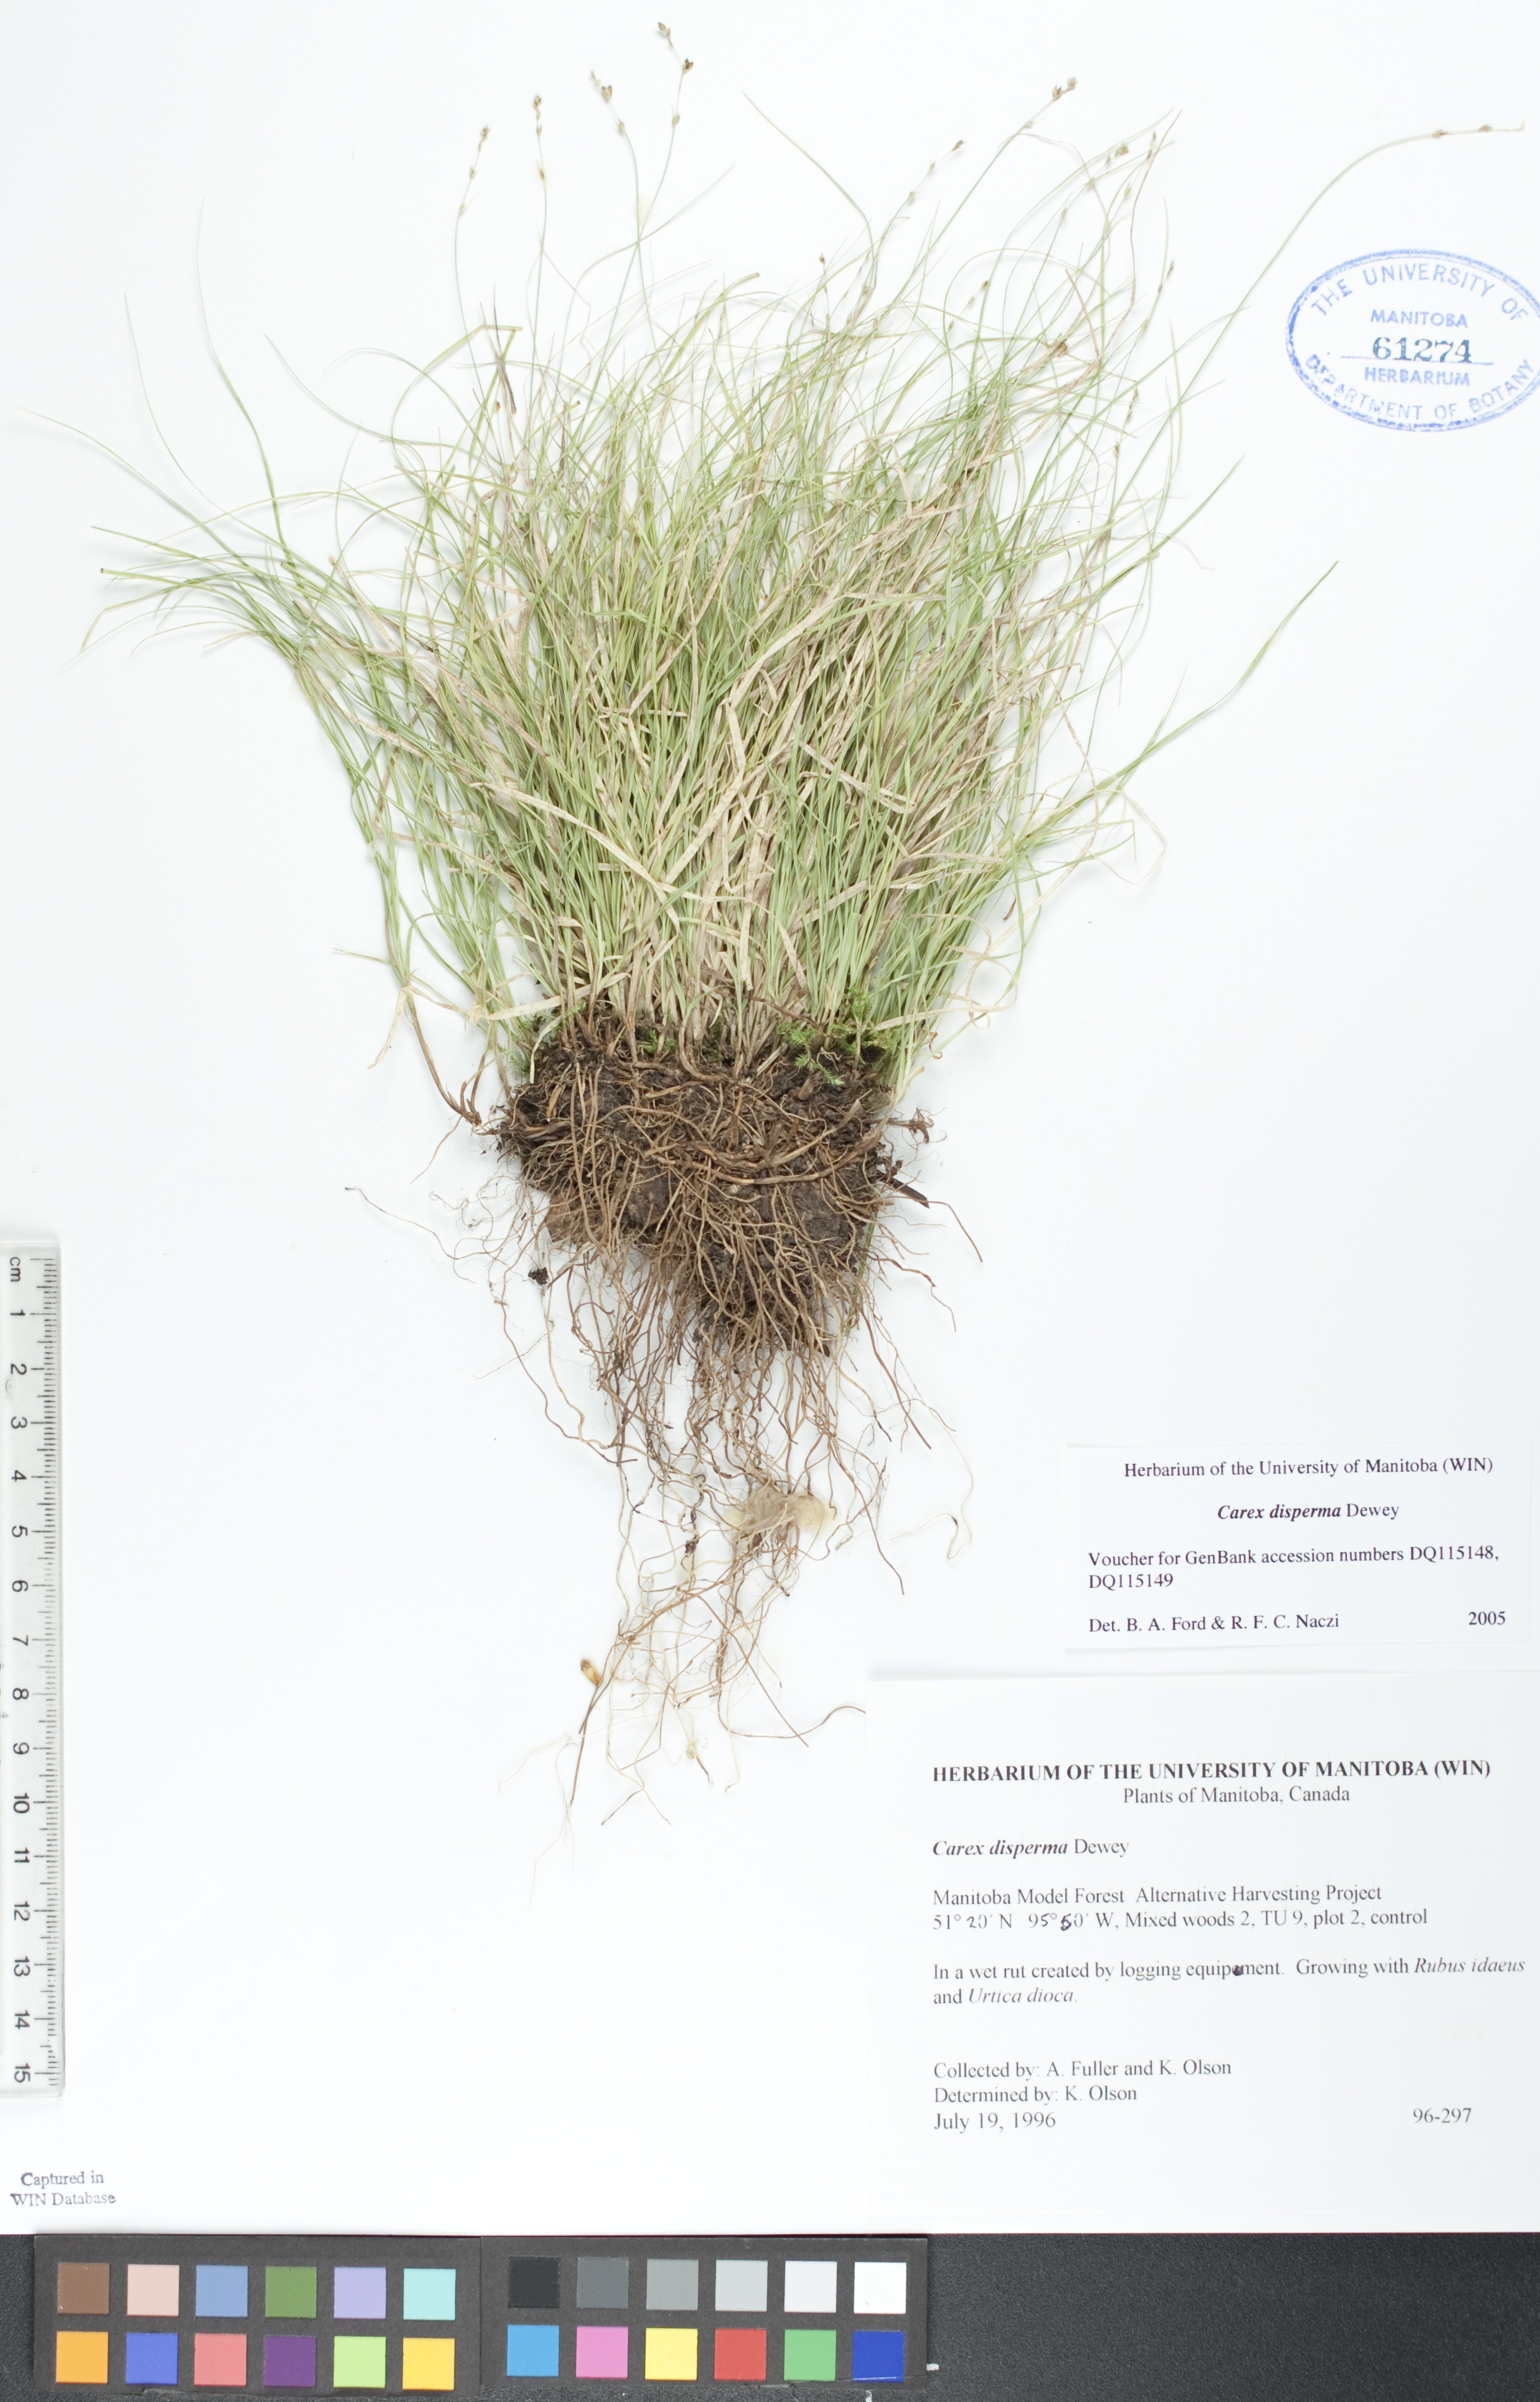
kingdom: Plantae
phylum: Tracheophyta
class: Liliopsida
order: Poales
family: Cyperaceae
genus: Carex
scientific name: Carex disperma
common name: Short-leaved sedge
